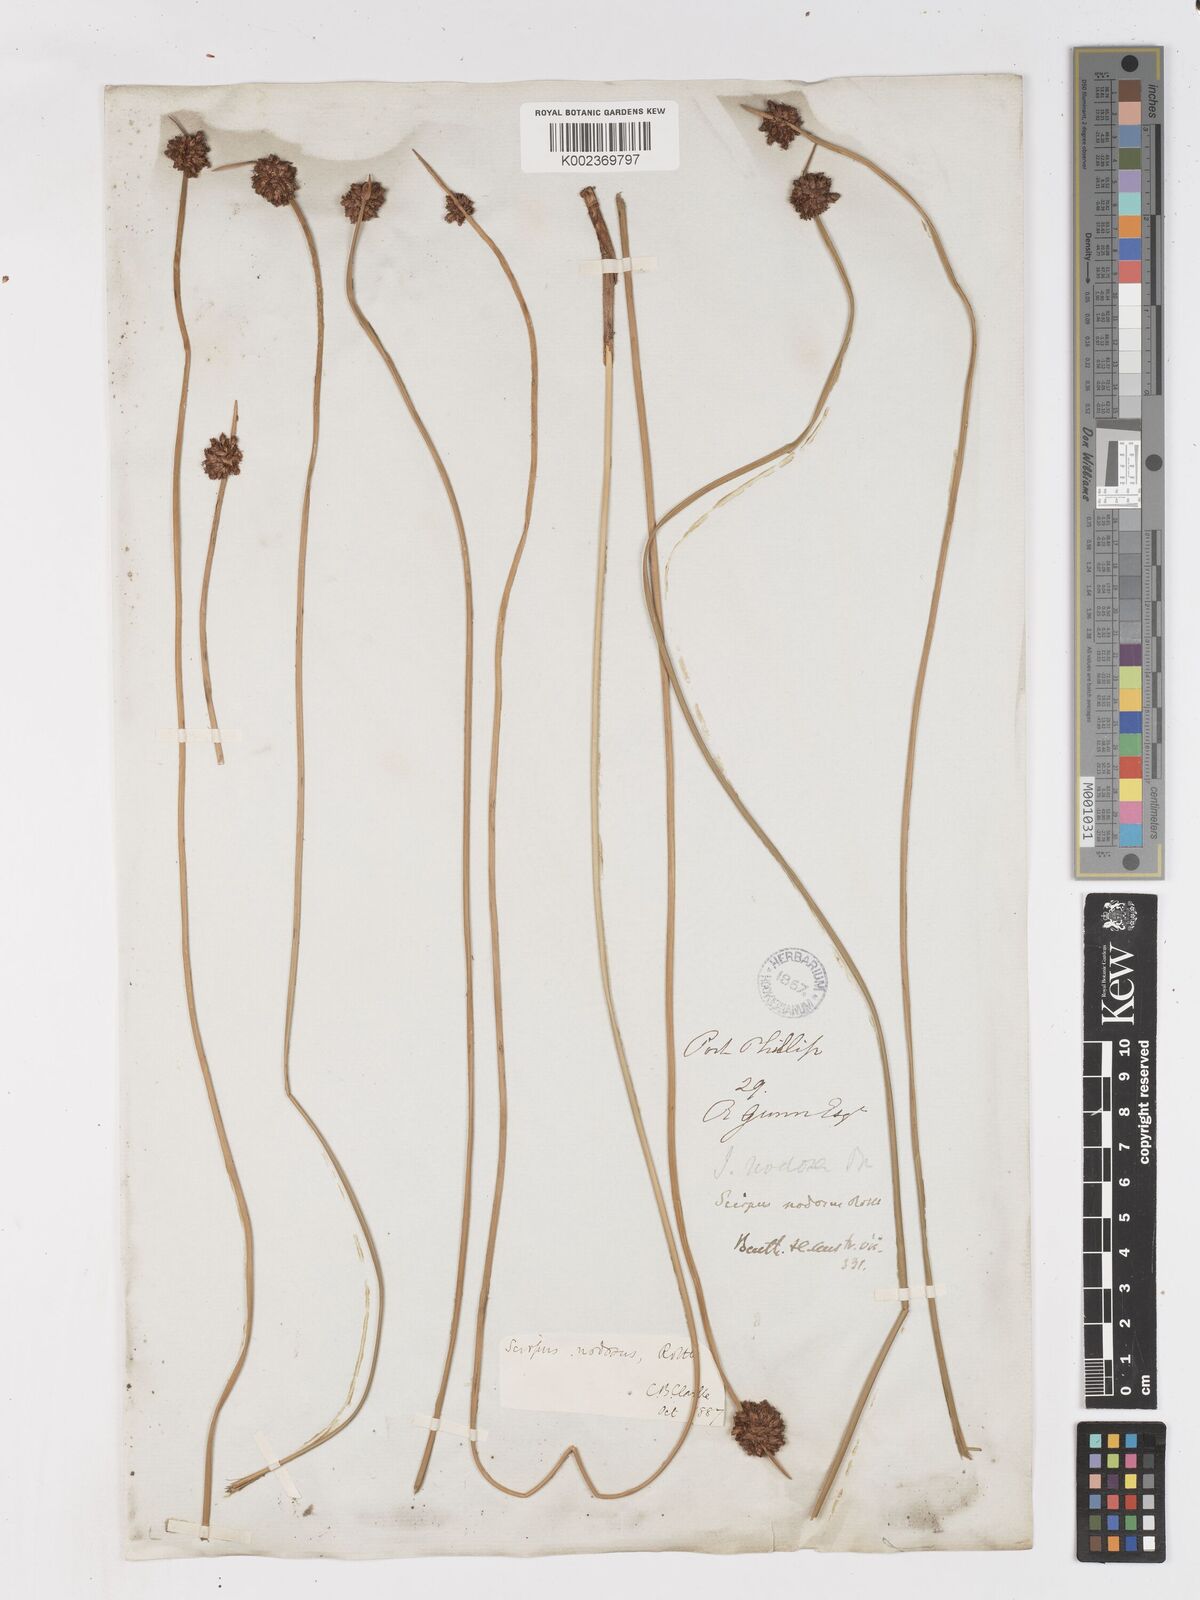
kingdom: Plantae
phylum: Tracheophyta
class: Liliopsida
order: Poales
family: Cyperaceae
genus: Ficinia
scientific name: Ficinia nodosa
